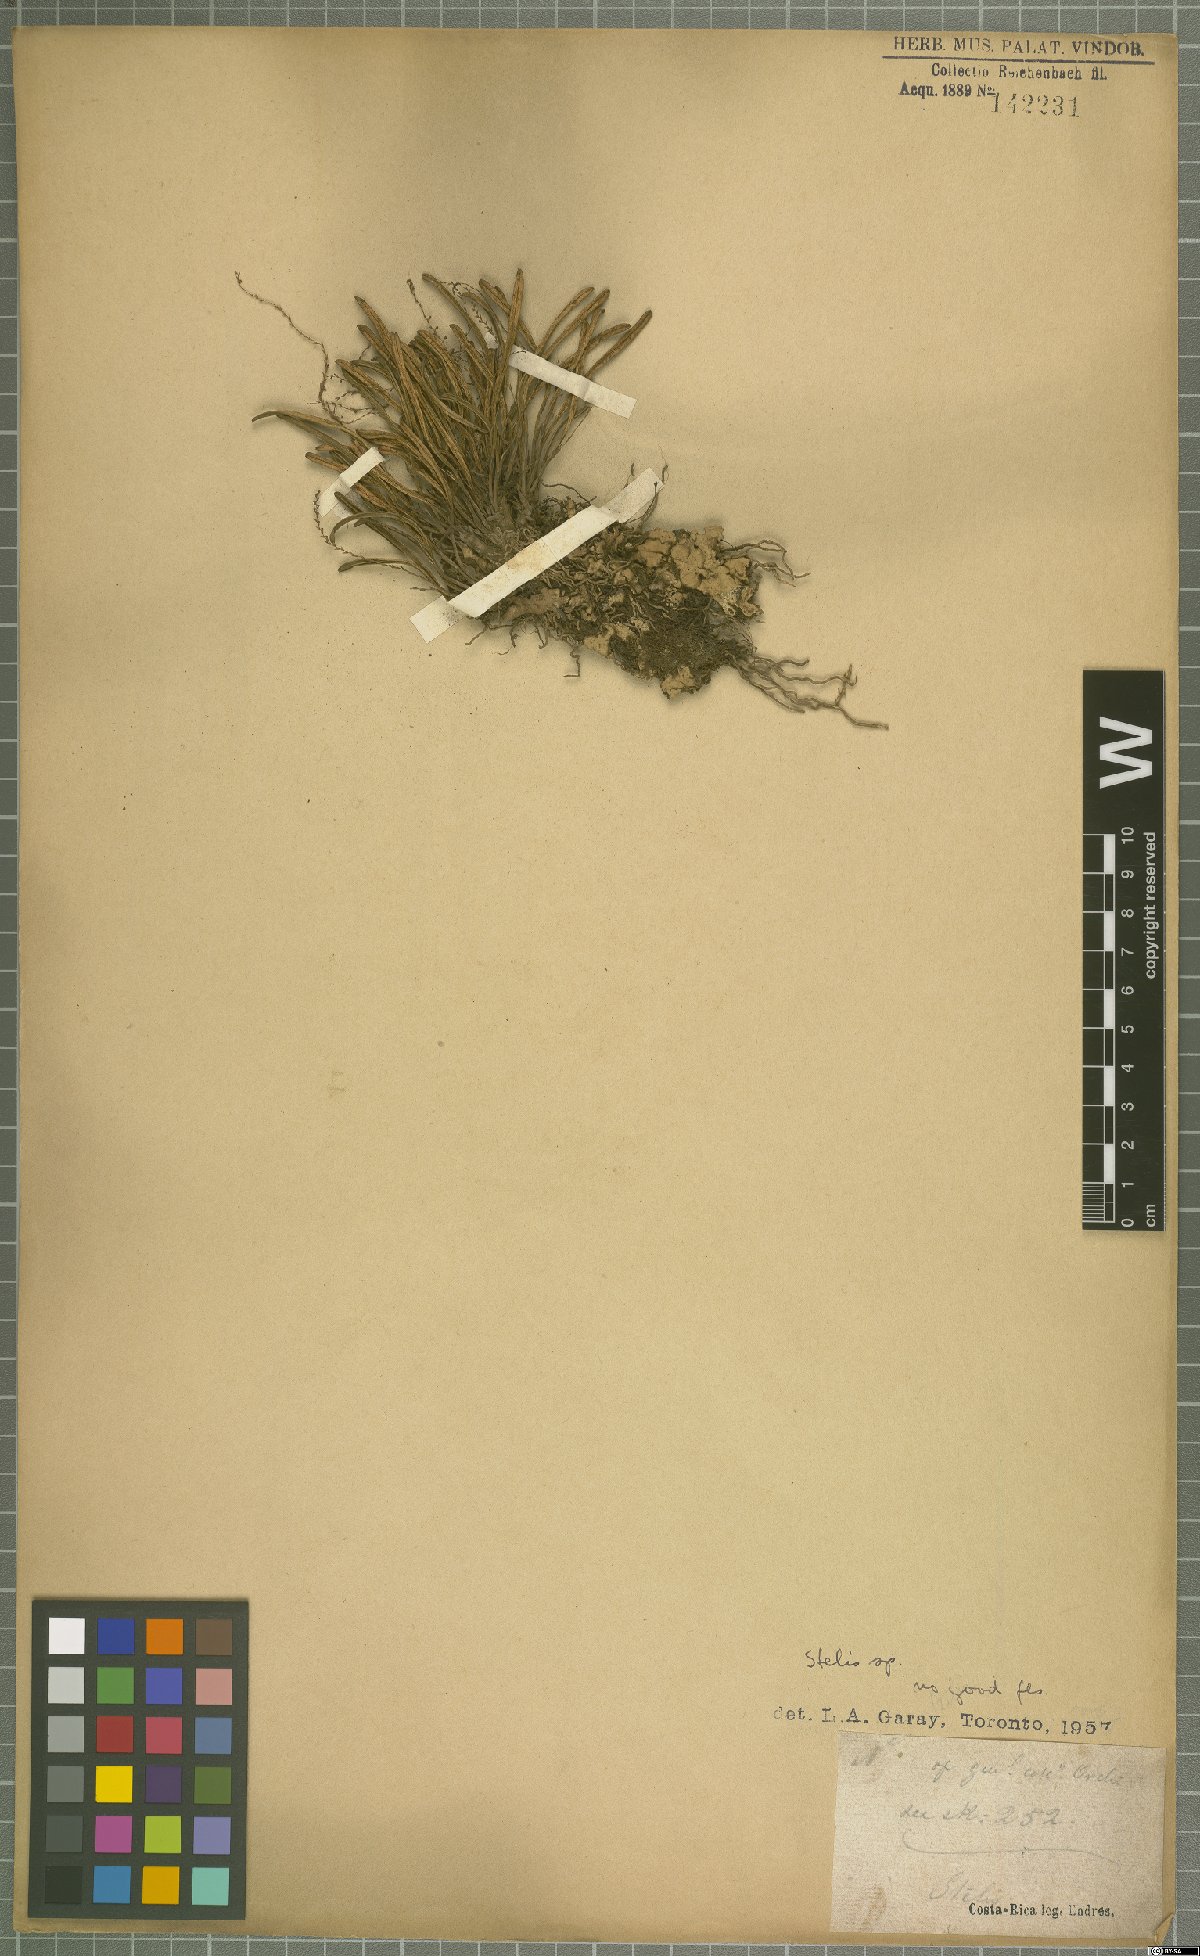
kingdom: Plantae
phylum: Tracheophyta
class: Liliopsida
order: Asparagales
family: Orchidaceae
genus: Stelis
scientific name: Stelis
